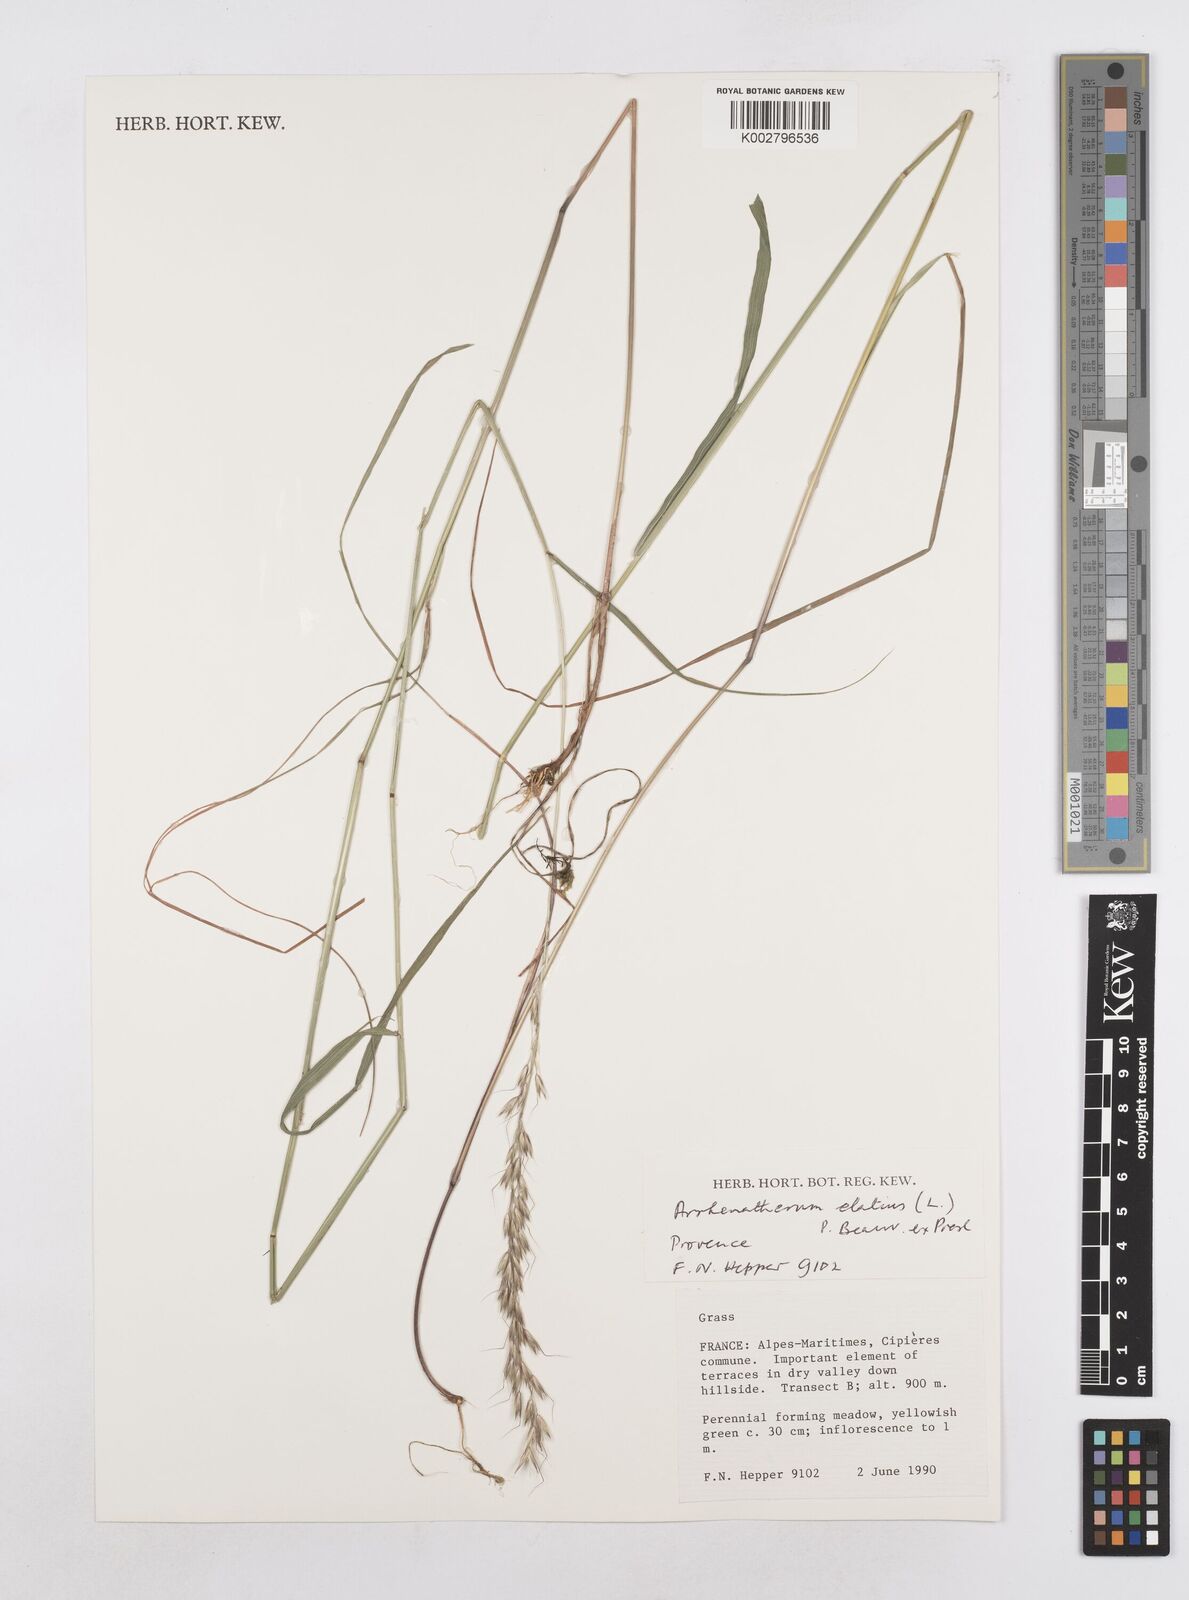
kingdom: Plantae
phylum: Tracheophyta
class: Liliopsida
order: Poales
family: Poaceae
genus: Arrhenatherum
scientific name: Arrhenatherum elatius
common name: Tall oatgrass
